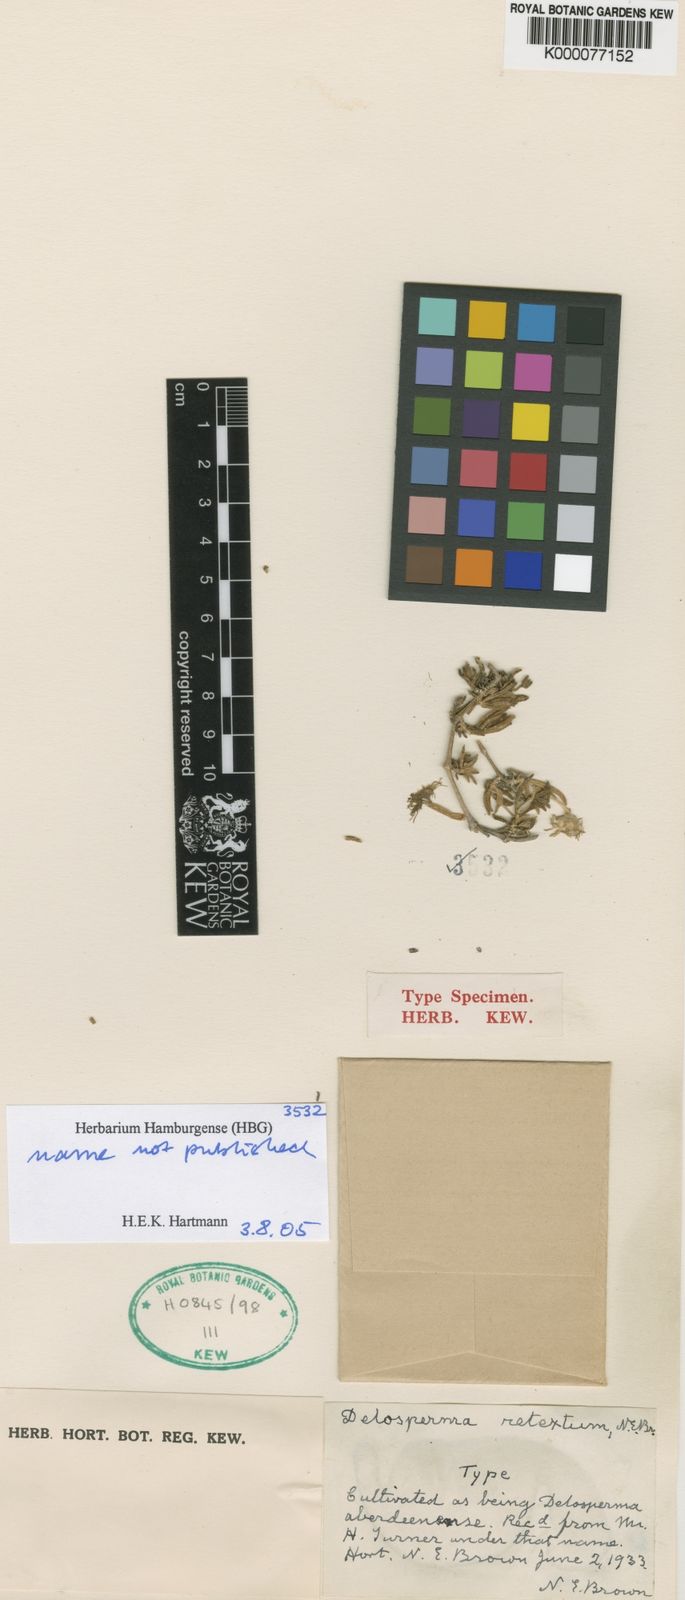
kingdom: Plantae
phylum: Tracheophyta
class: Magnoliopsida
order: Caryophyllales
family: Aizoaceae
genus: Delosperma
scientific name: Delosperma aberdeenense
